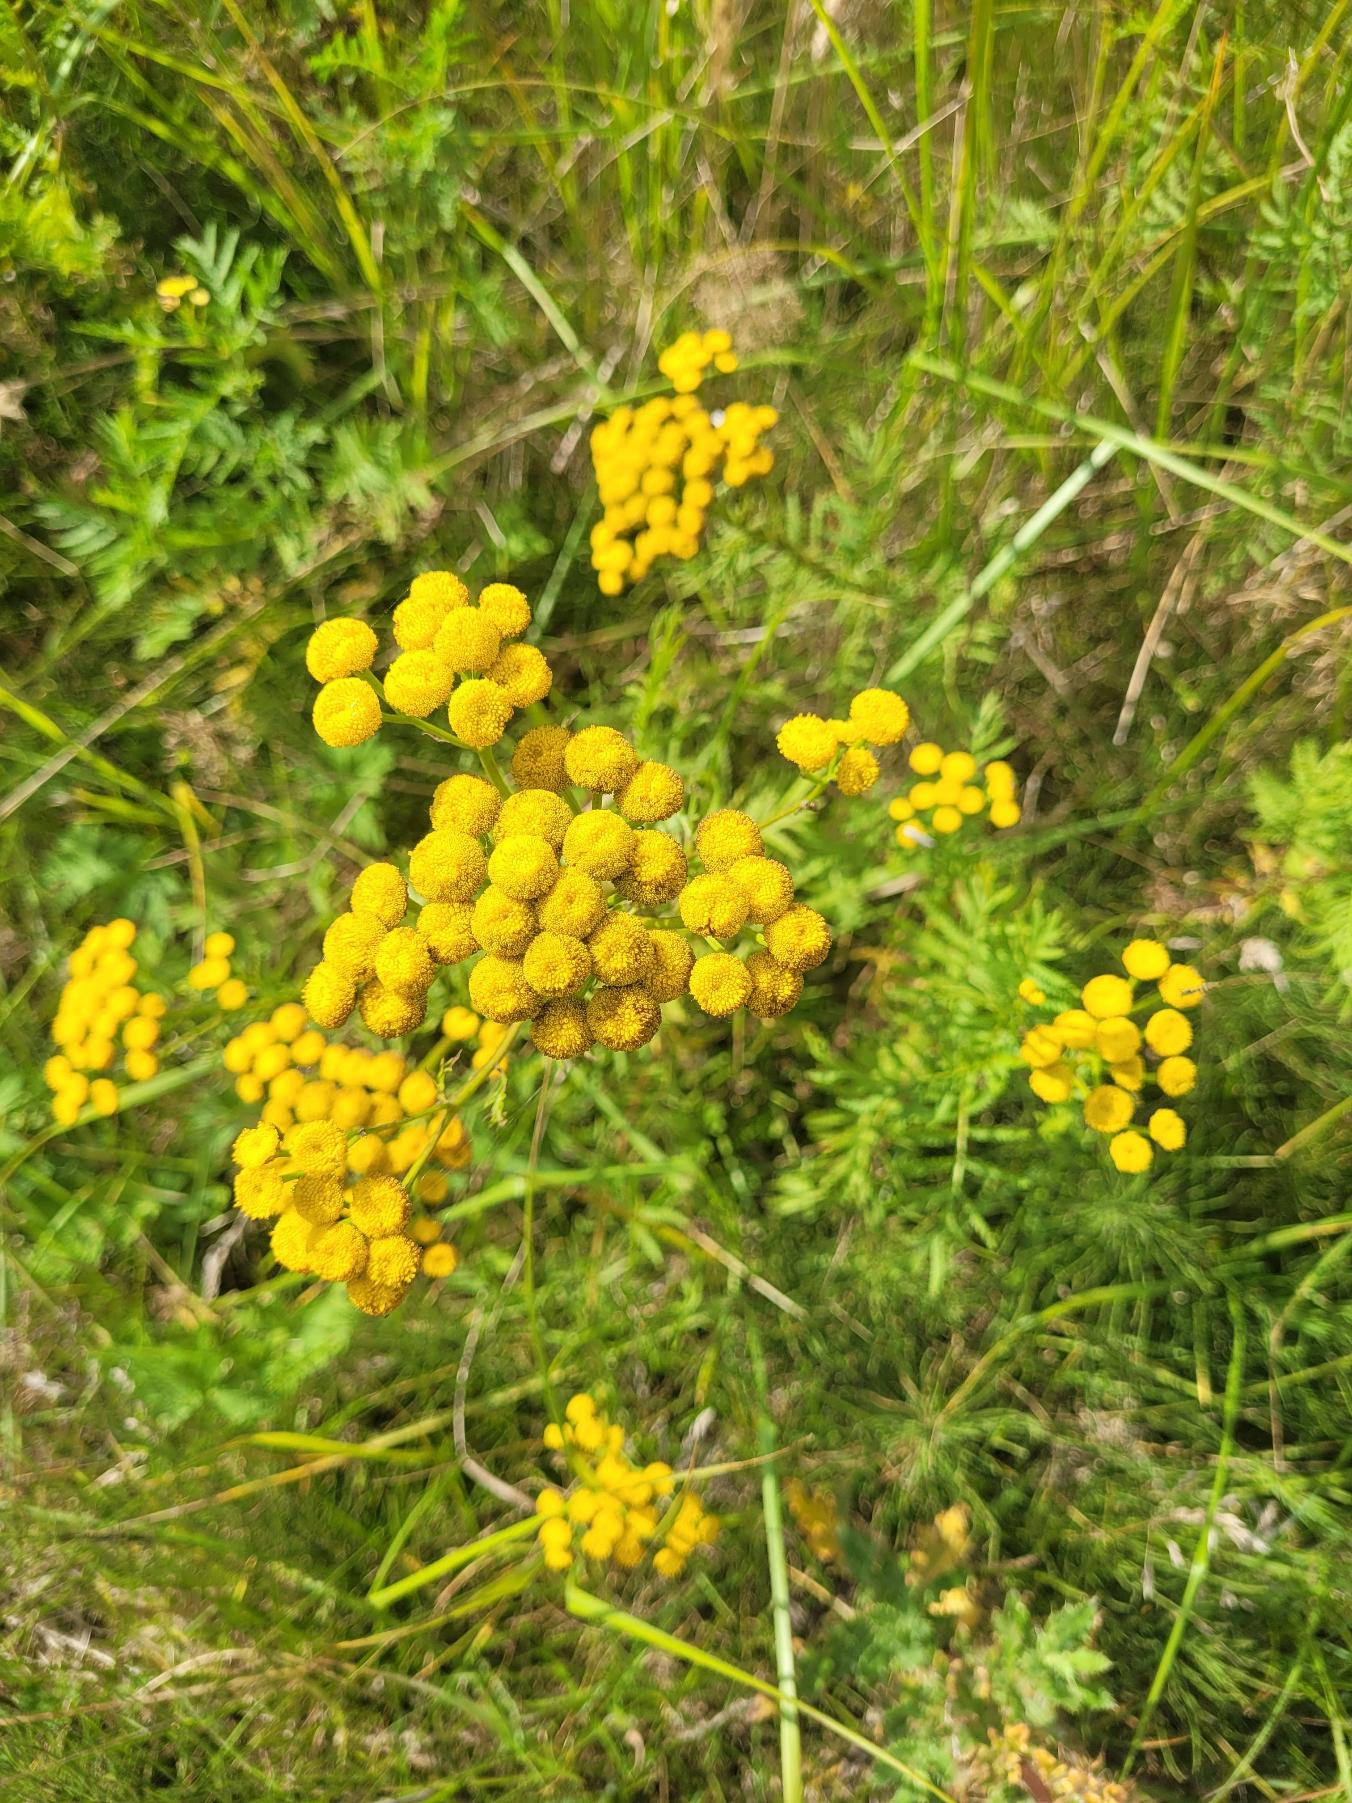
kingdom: Plantae
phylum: Tracheophyta
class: Magnoliopsida
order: Asterales
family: Asteraceae
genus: Tanacetum
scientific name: Tanacetum vulgare
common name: Rejnfan
